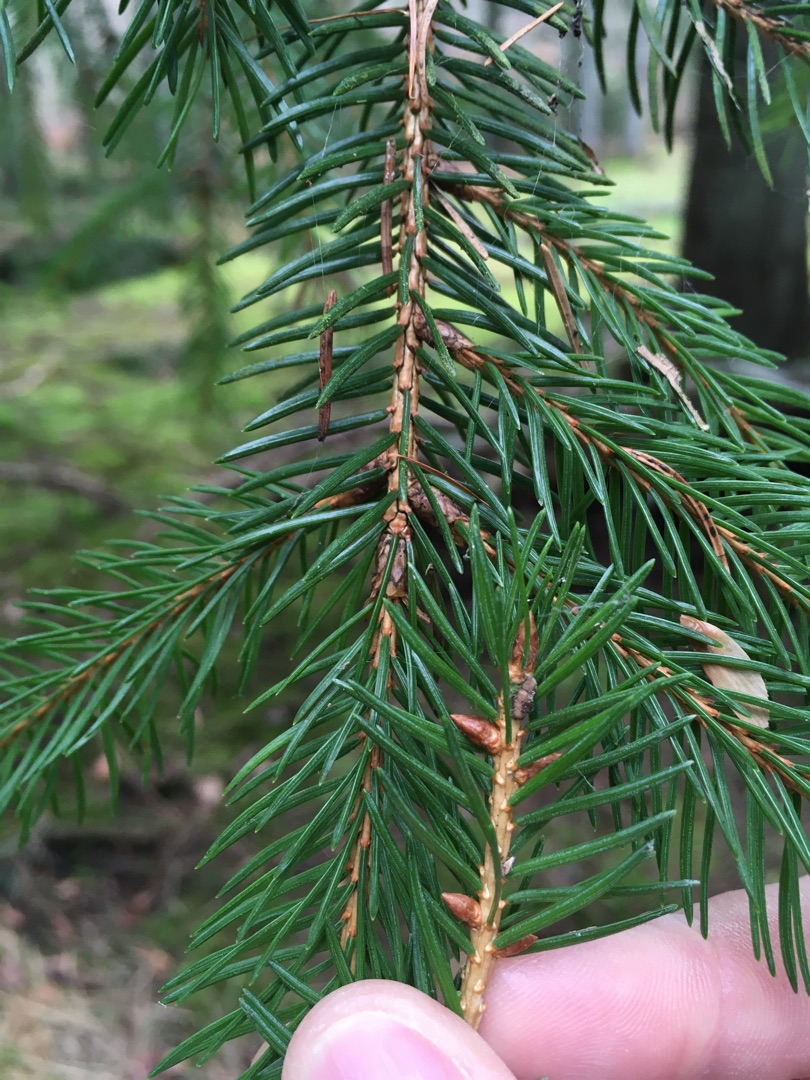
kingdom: Plantae
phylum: Tracheophyta
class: Pinopsida
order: Pinales
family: Pinaceae
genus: Picea
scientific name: Picea abies
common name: Rød-gran
